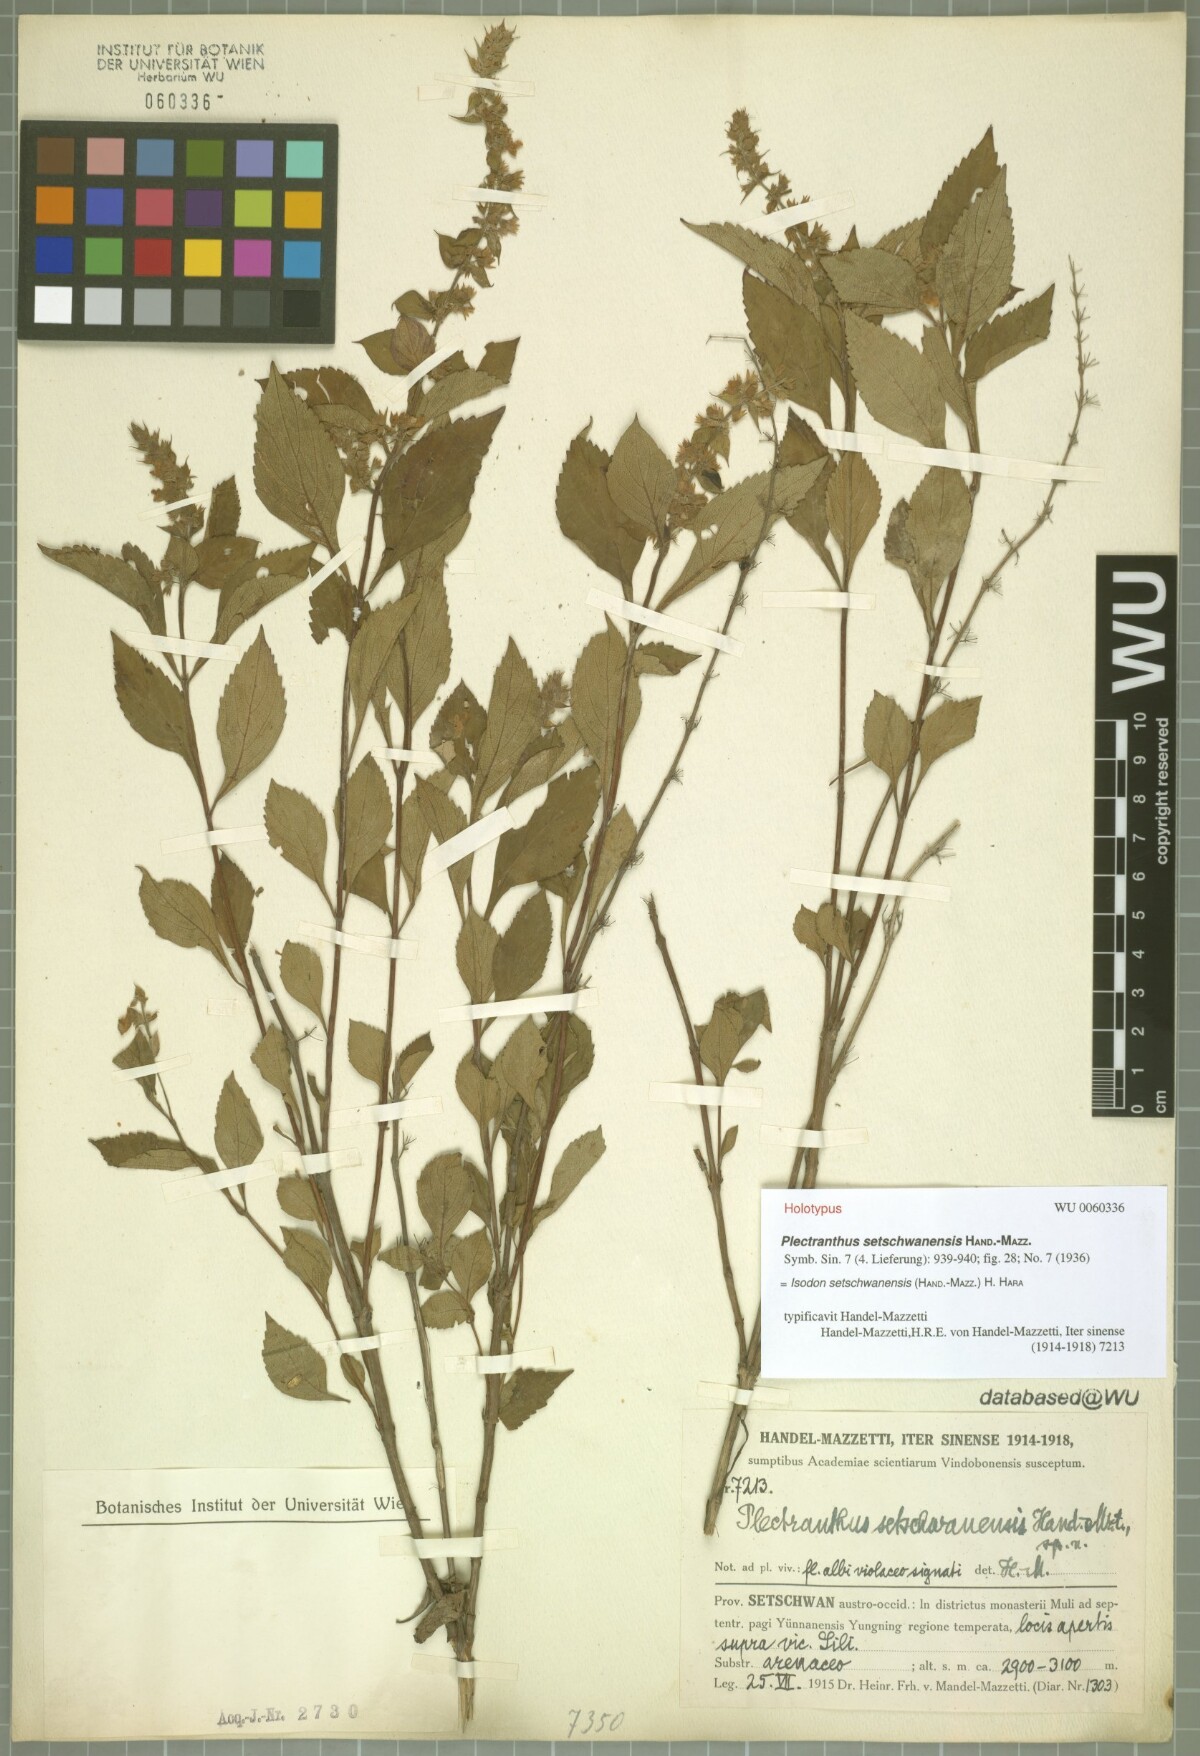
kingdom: Plantae
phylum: Tracheophyta
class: Magnoliopsida
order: Lamiales
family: Lamiaceae
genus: Isodon
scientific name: Isodon setschwanensis
